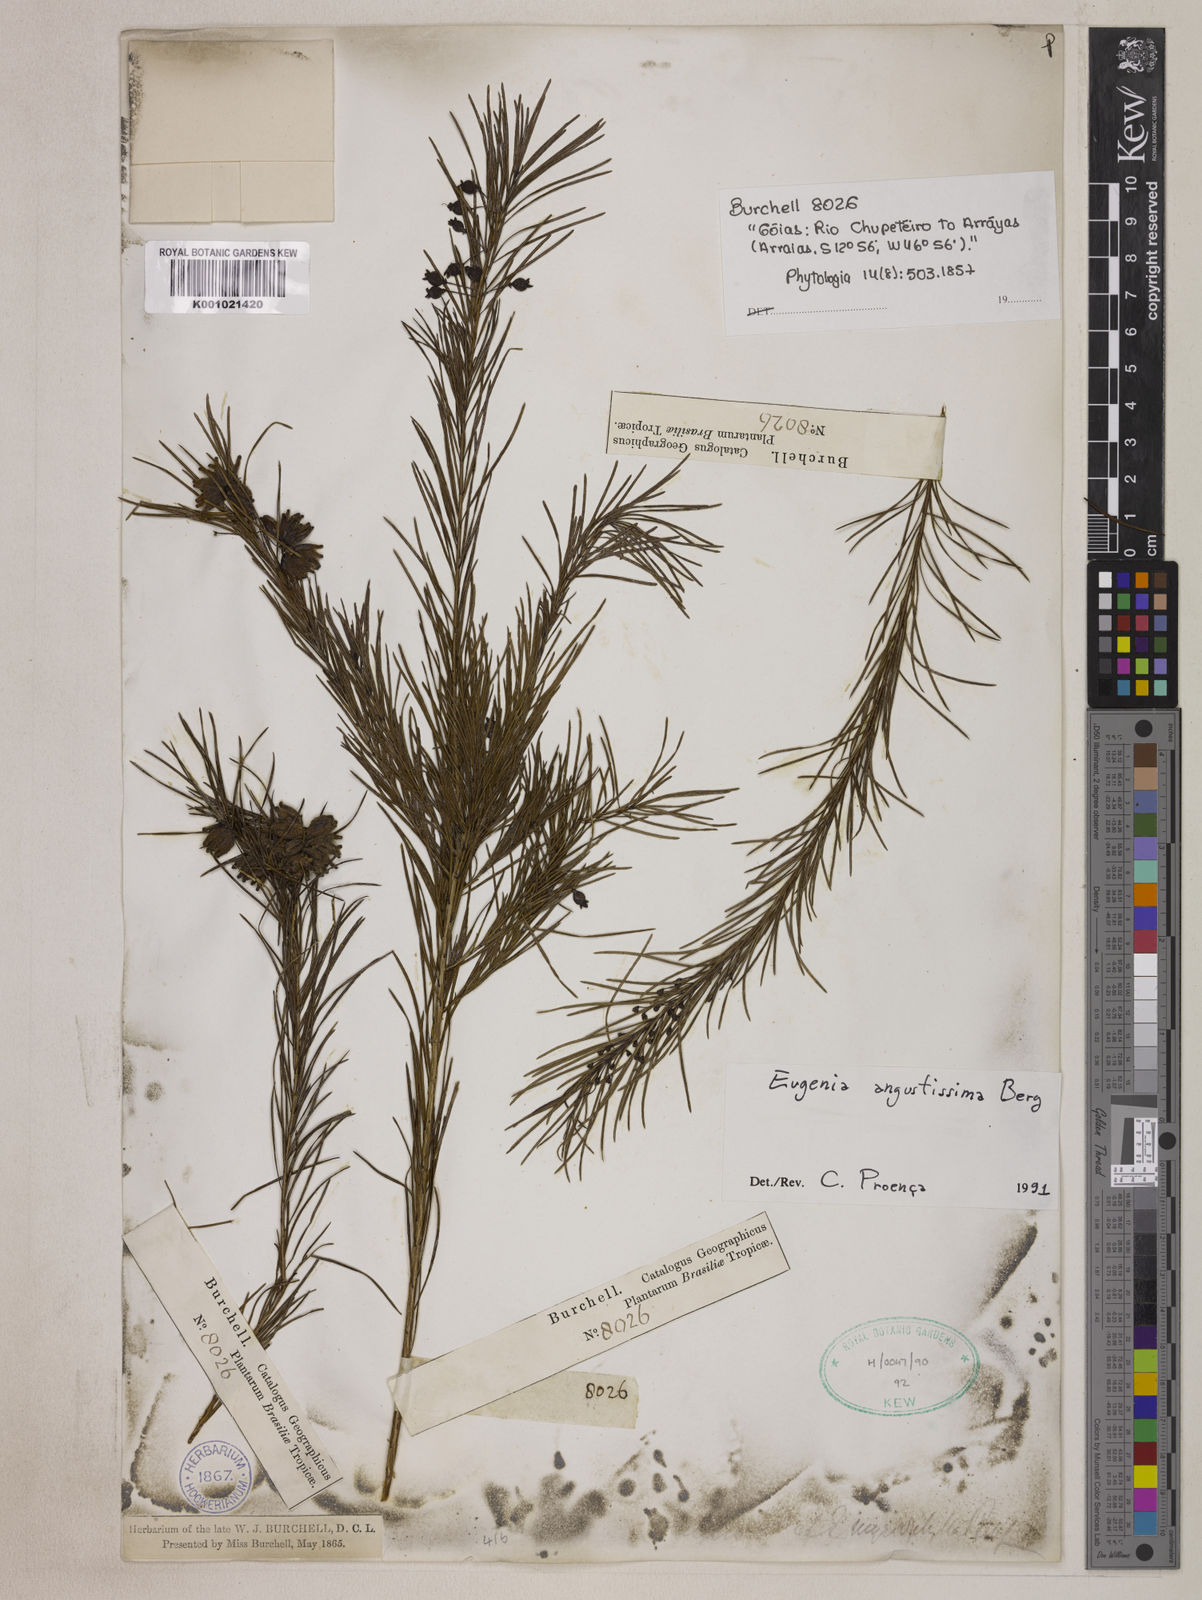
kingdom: Plantae
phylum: Tracheophyta
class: Magnoliopsida
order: Myrtales
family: Myrtaceae
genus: Eugenia
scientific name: Eugenia angustissima
